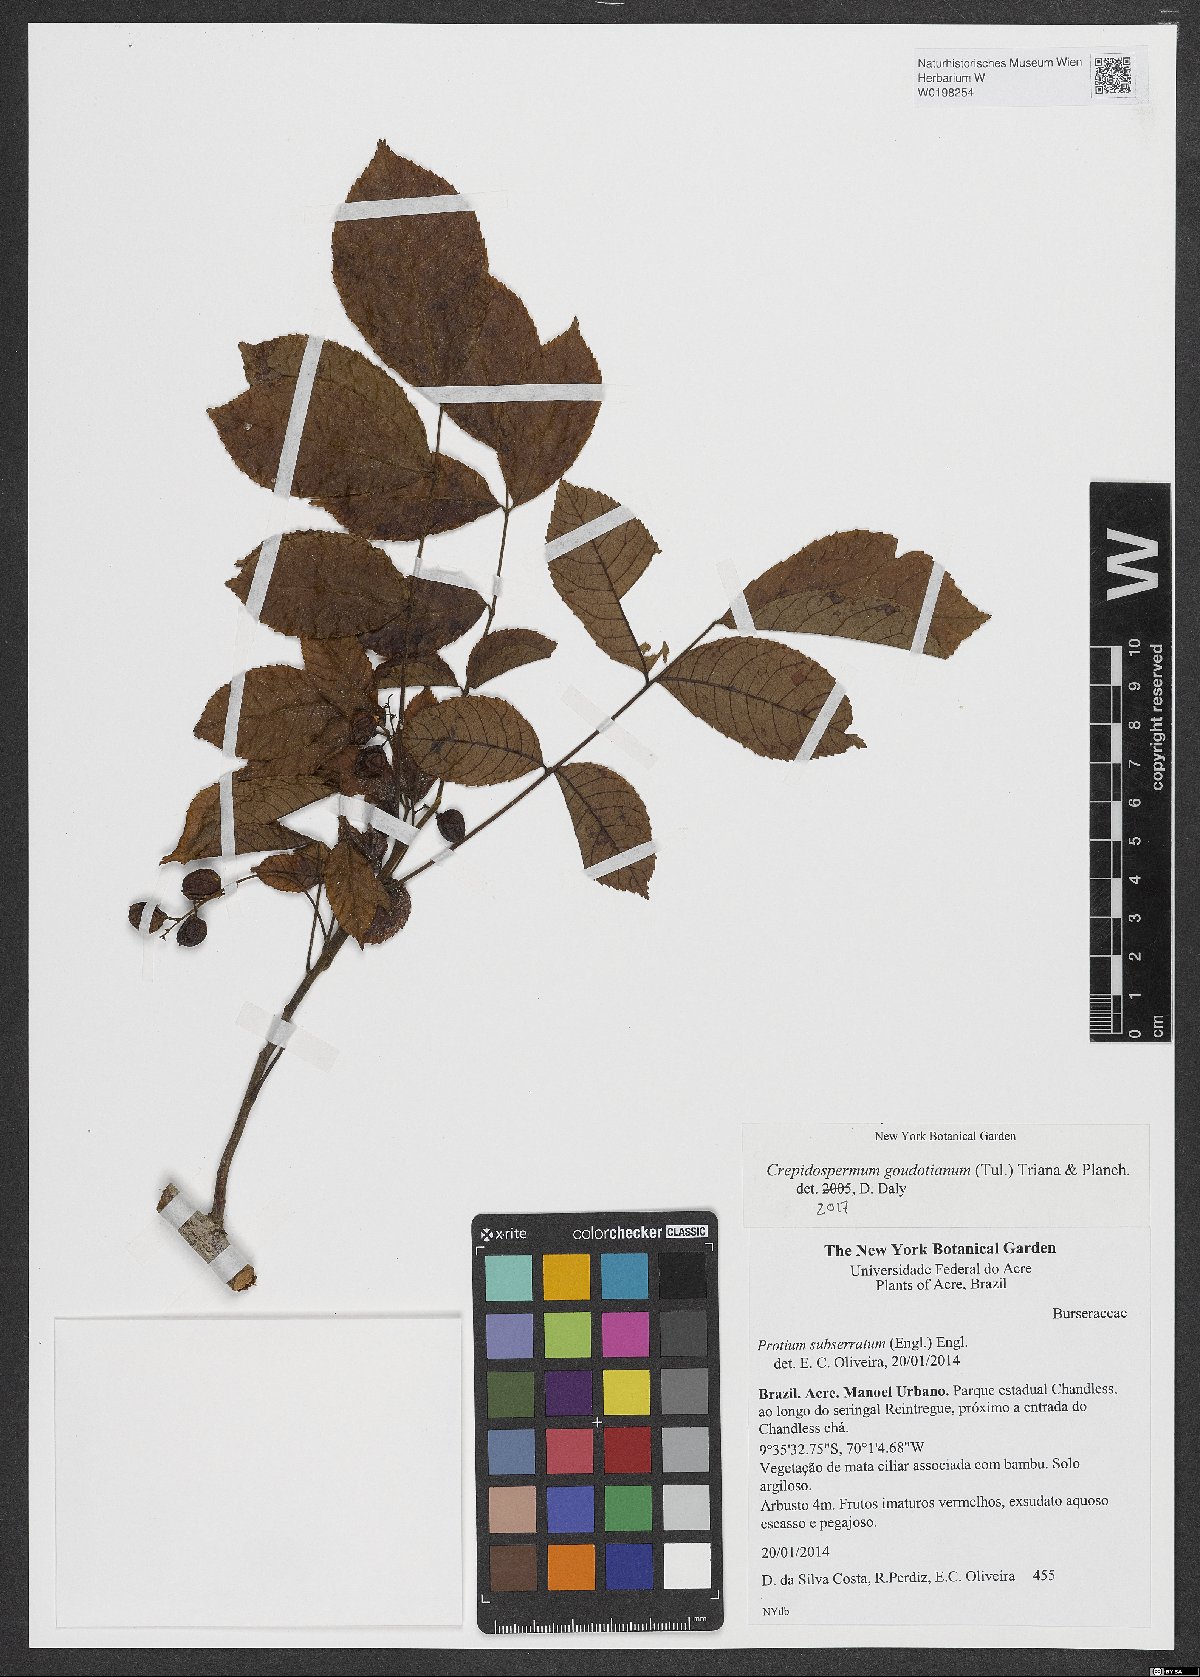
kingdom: Plantae
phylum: Tracheophyta
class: Magnoliopsida
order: Sapindales
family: Burseraceae
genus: Crepidospermum
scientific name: Crepidospermum goudotianum
